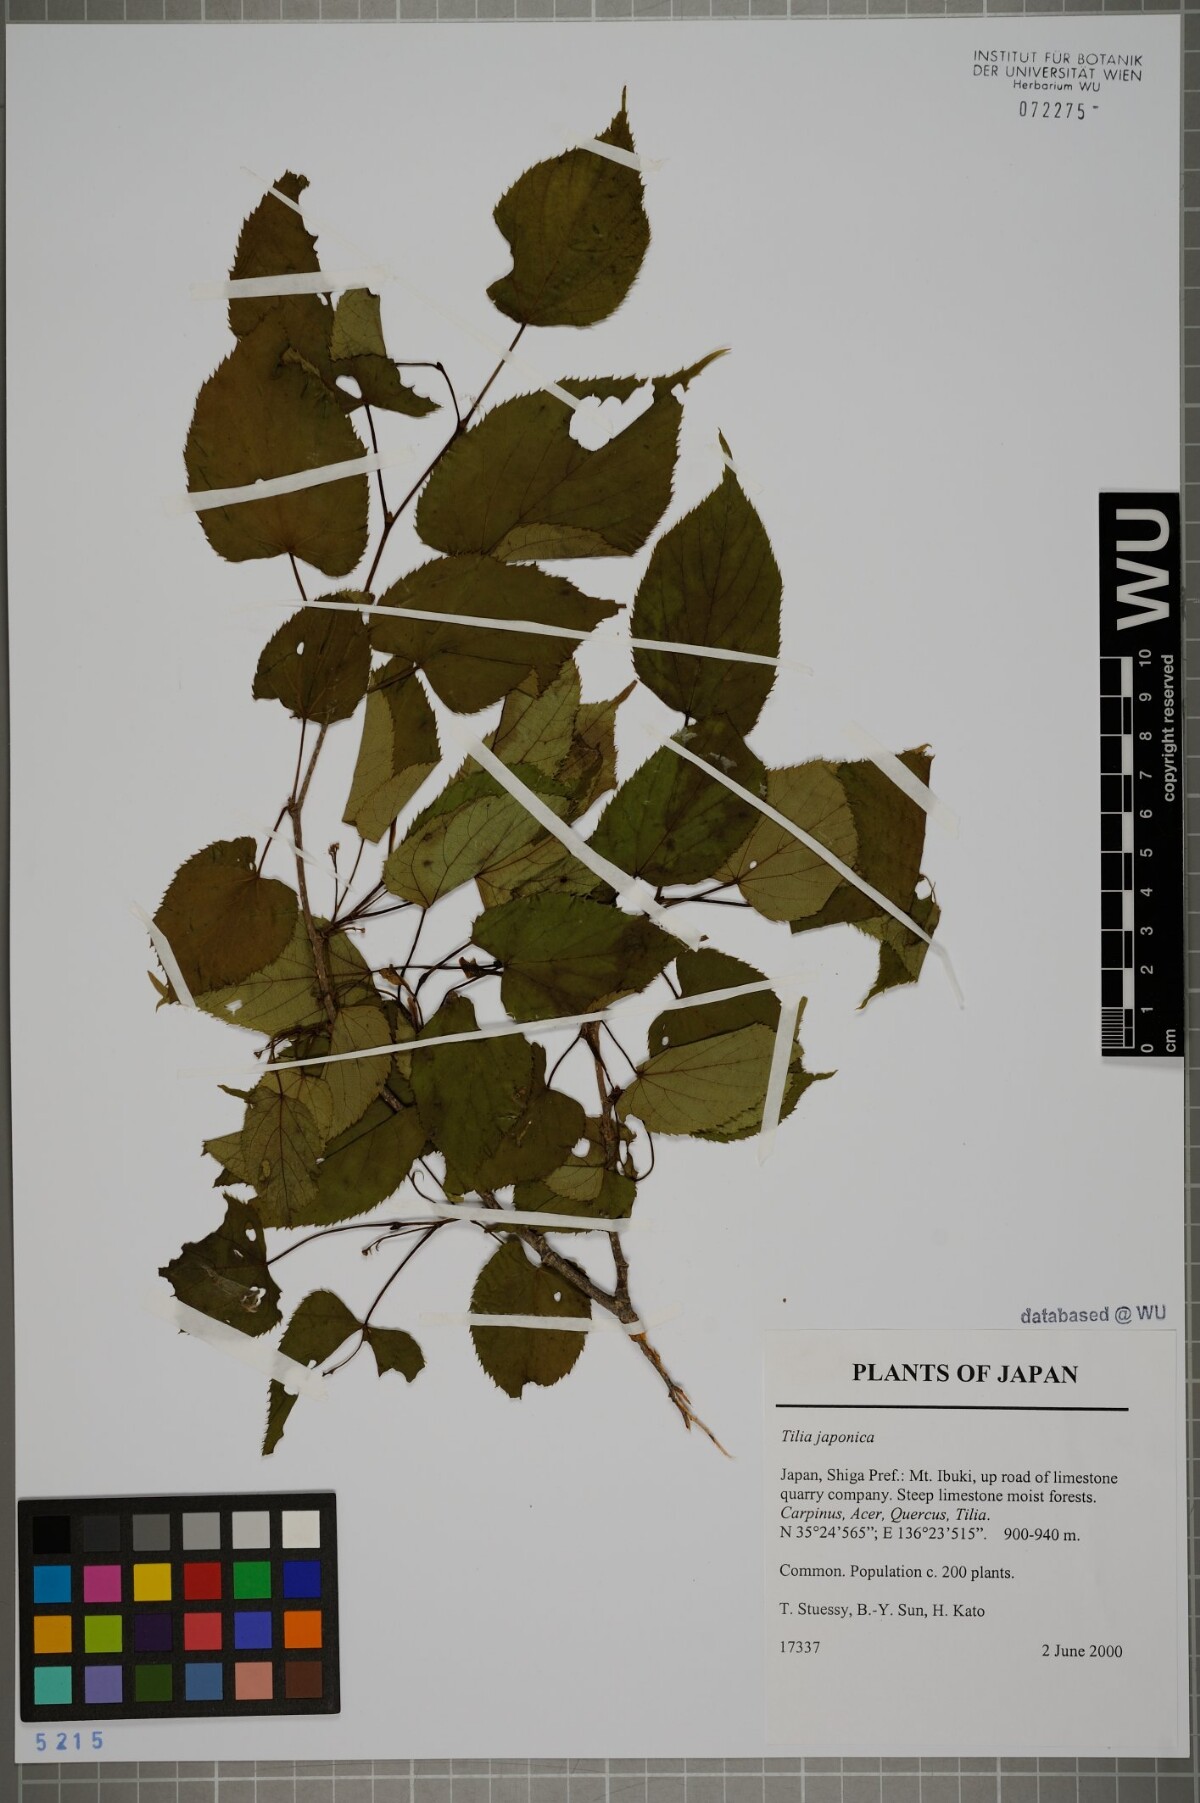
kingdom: Plantae
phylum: Tracheophyta
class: Magnoliopsida
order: Malvales
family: Malvaceae
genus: Tilia
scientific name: Tilia japonica
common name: Japanese lime
